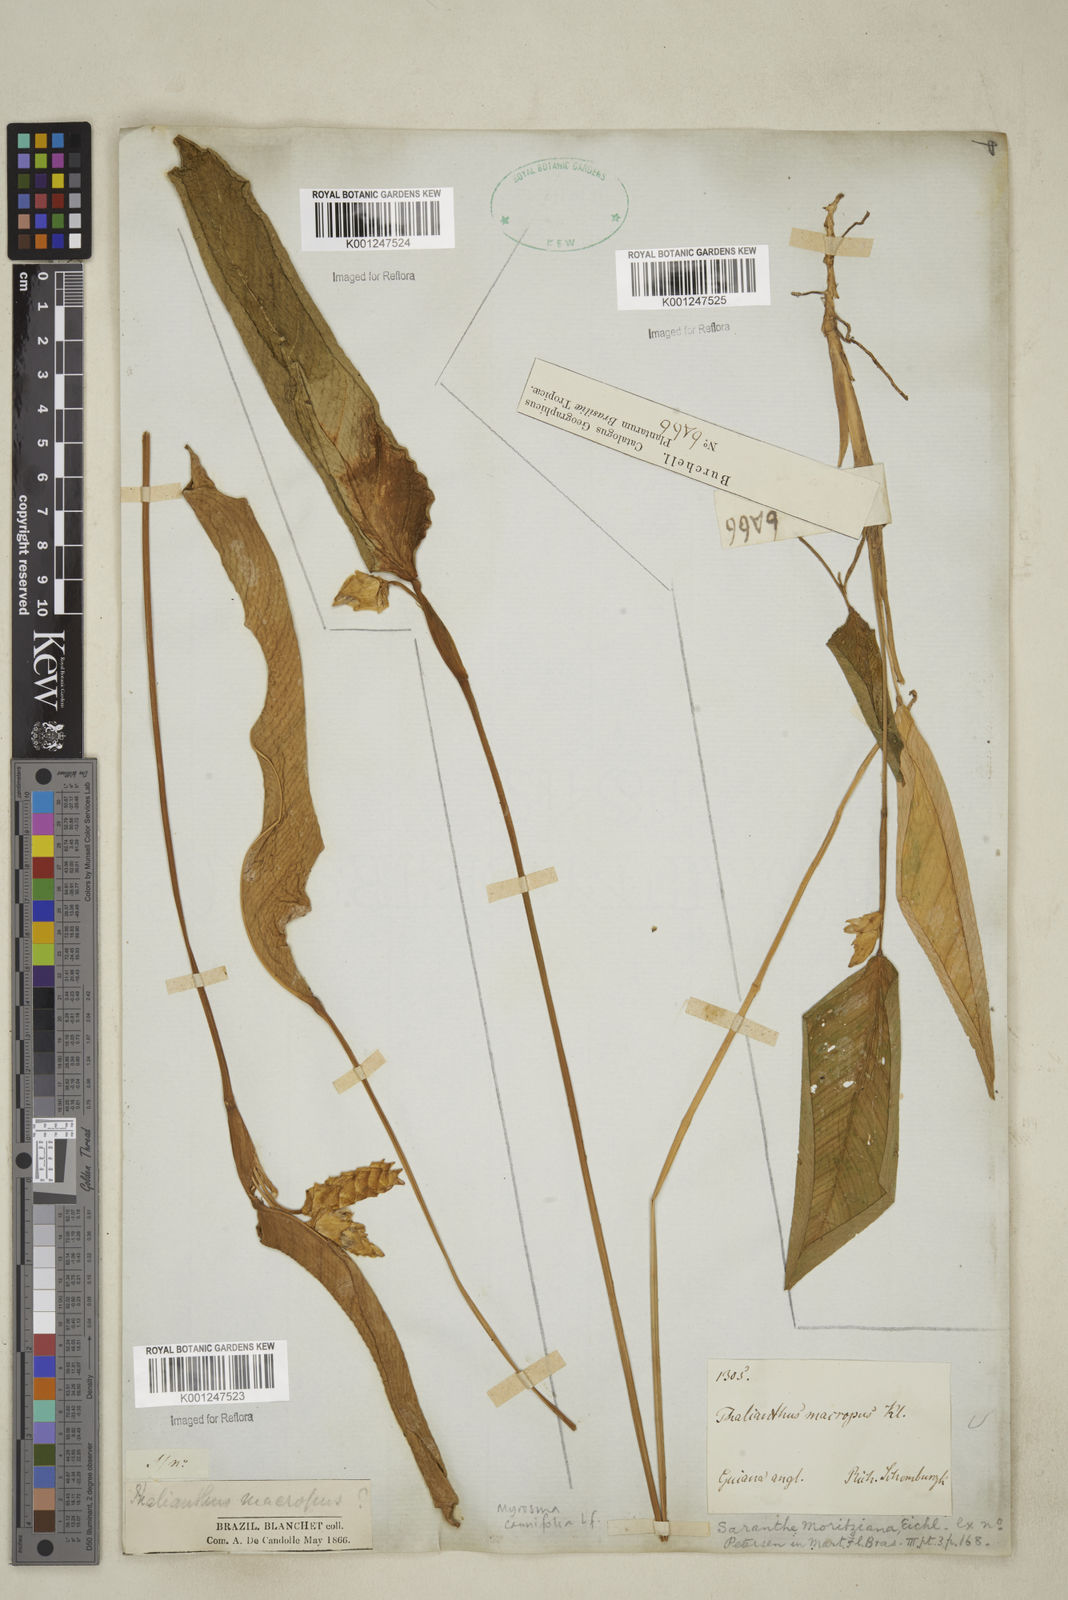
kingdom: Plantae
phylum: Tracheophyta
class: Liliopsida
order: Zingiberales
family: Marantaceae
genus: Myrosma
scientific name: Myrosma cannifolia
